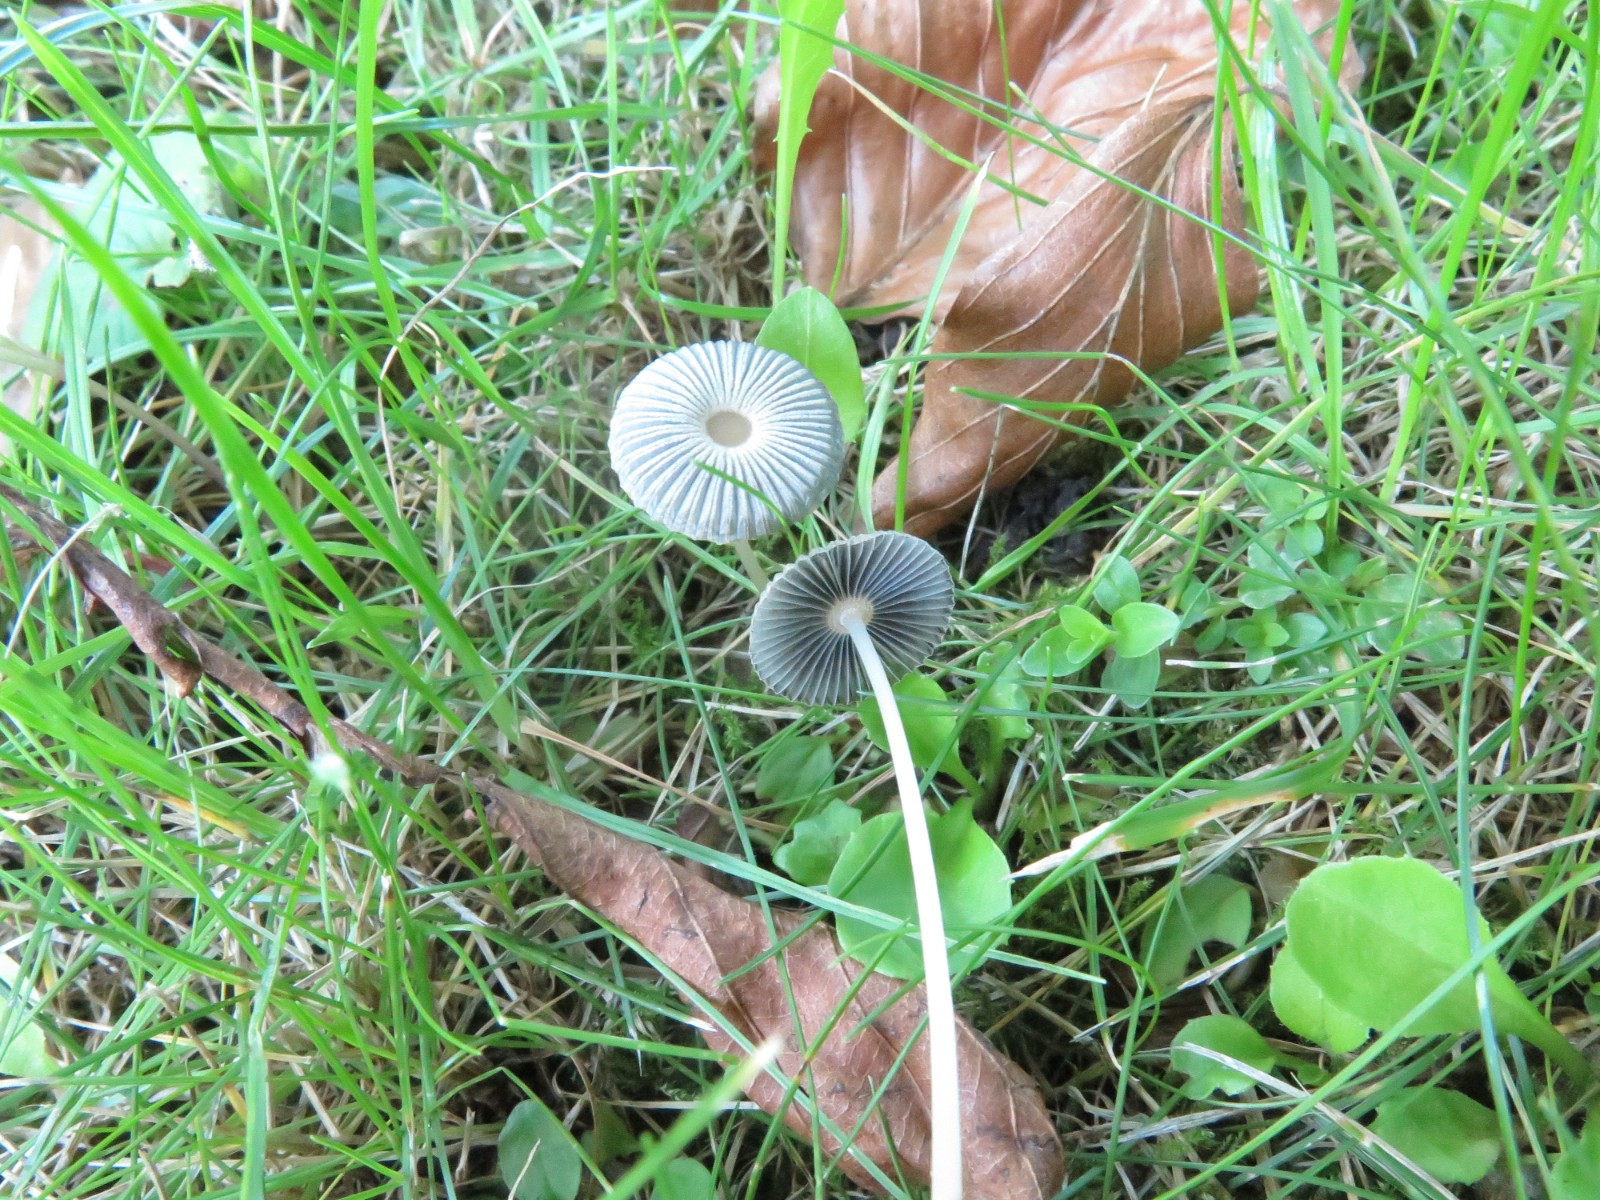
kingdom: Fungi
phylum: Basidiomycota
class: Agaricomycetes
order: Agaricales
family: Psathyrellaceae
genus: Parasola
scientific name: Parasola
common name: hjulhat
